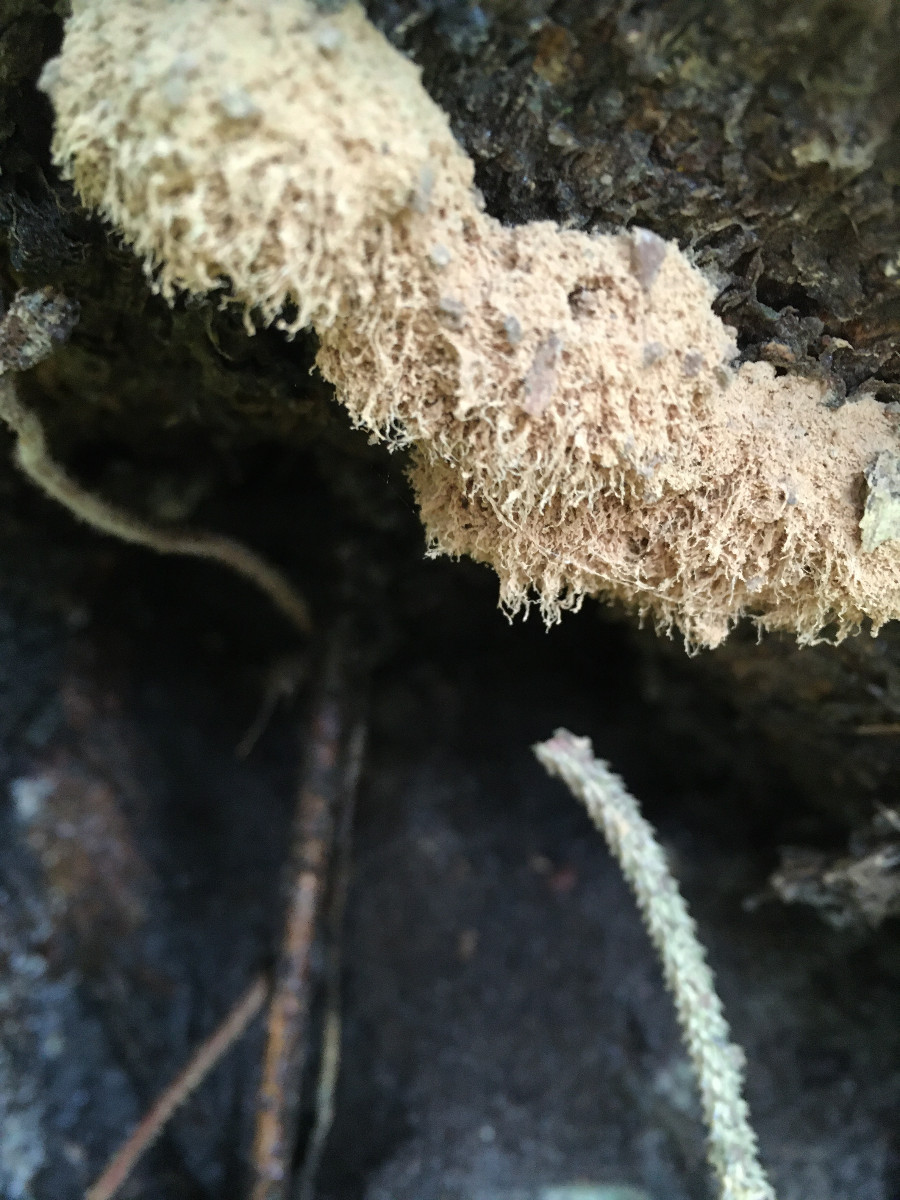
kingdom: Fungi
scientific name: Fungi
